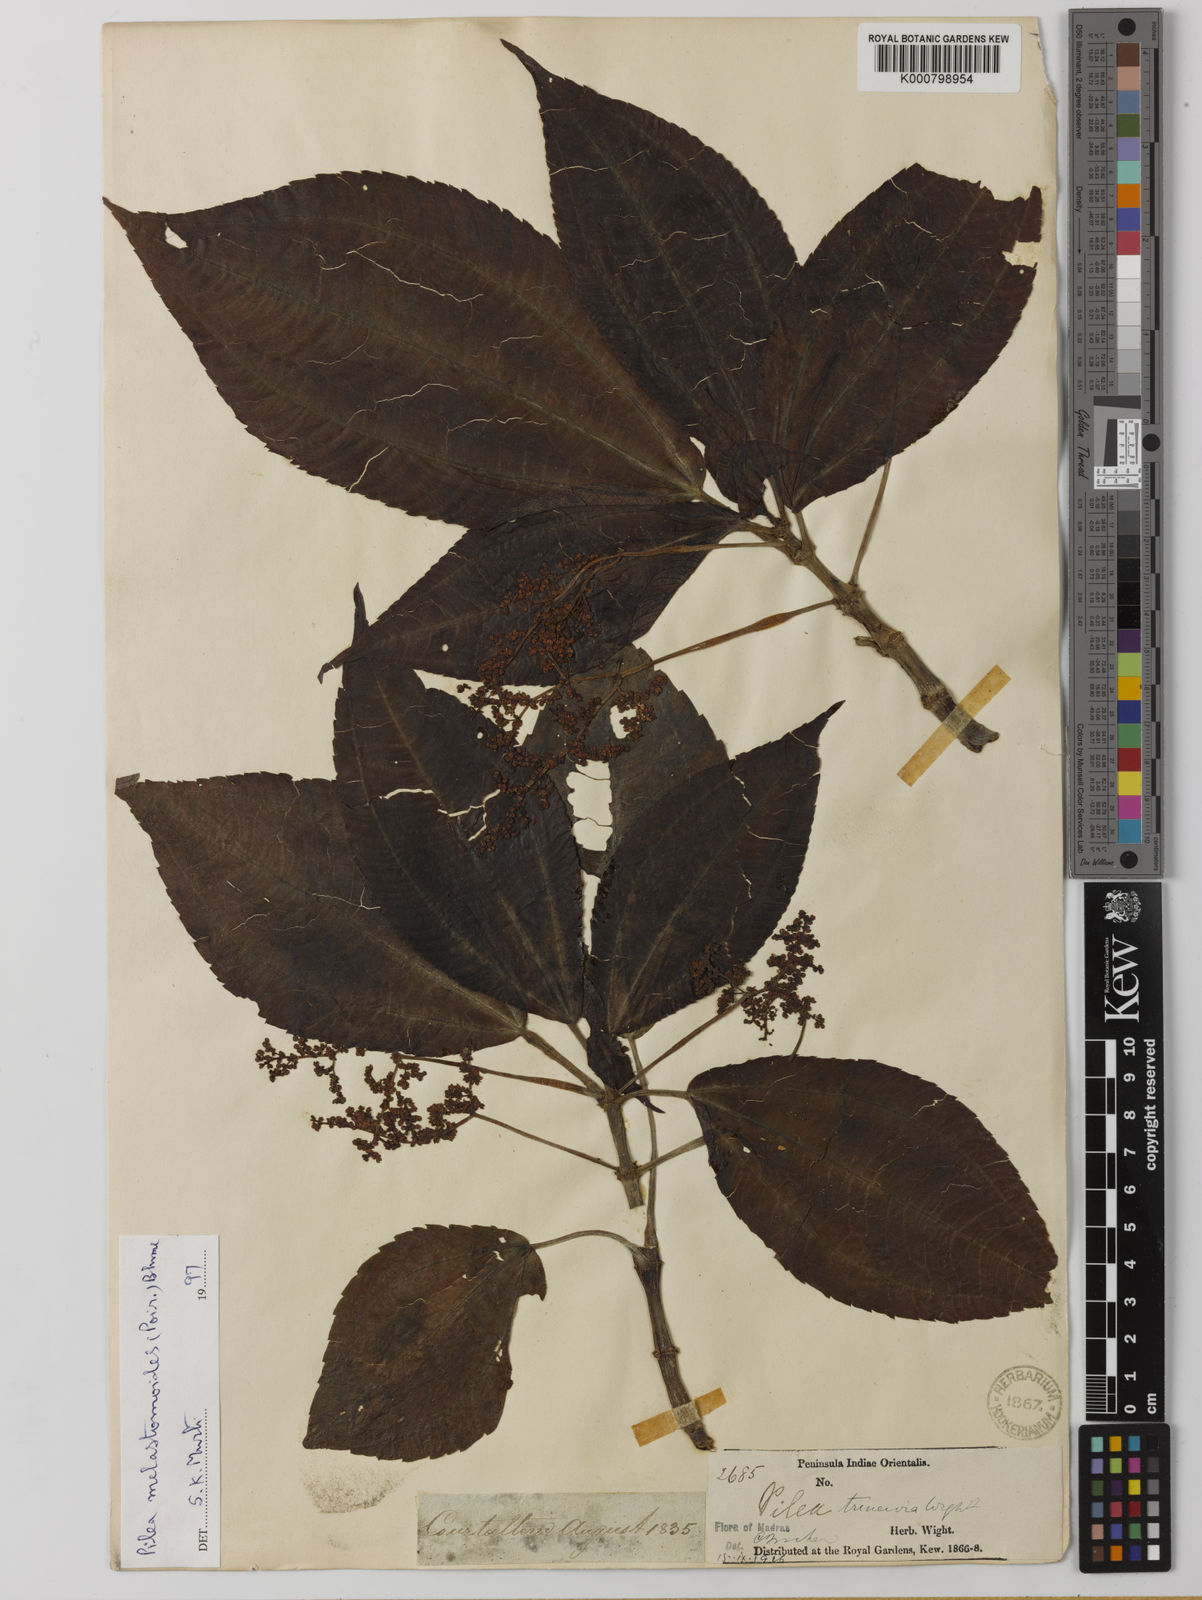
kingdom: Plantae
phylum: Tracheophyta
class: Magnoliopsida
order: Rosales
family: Urticaceae
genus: Pilea
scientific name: Pilea melastomoides
